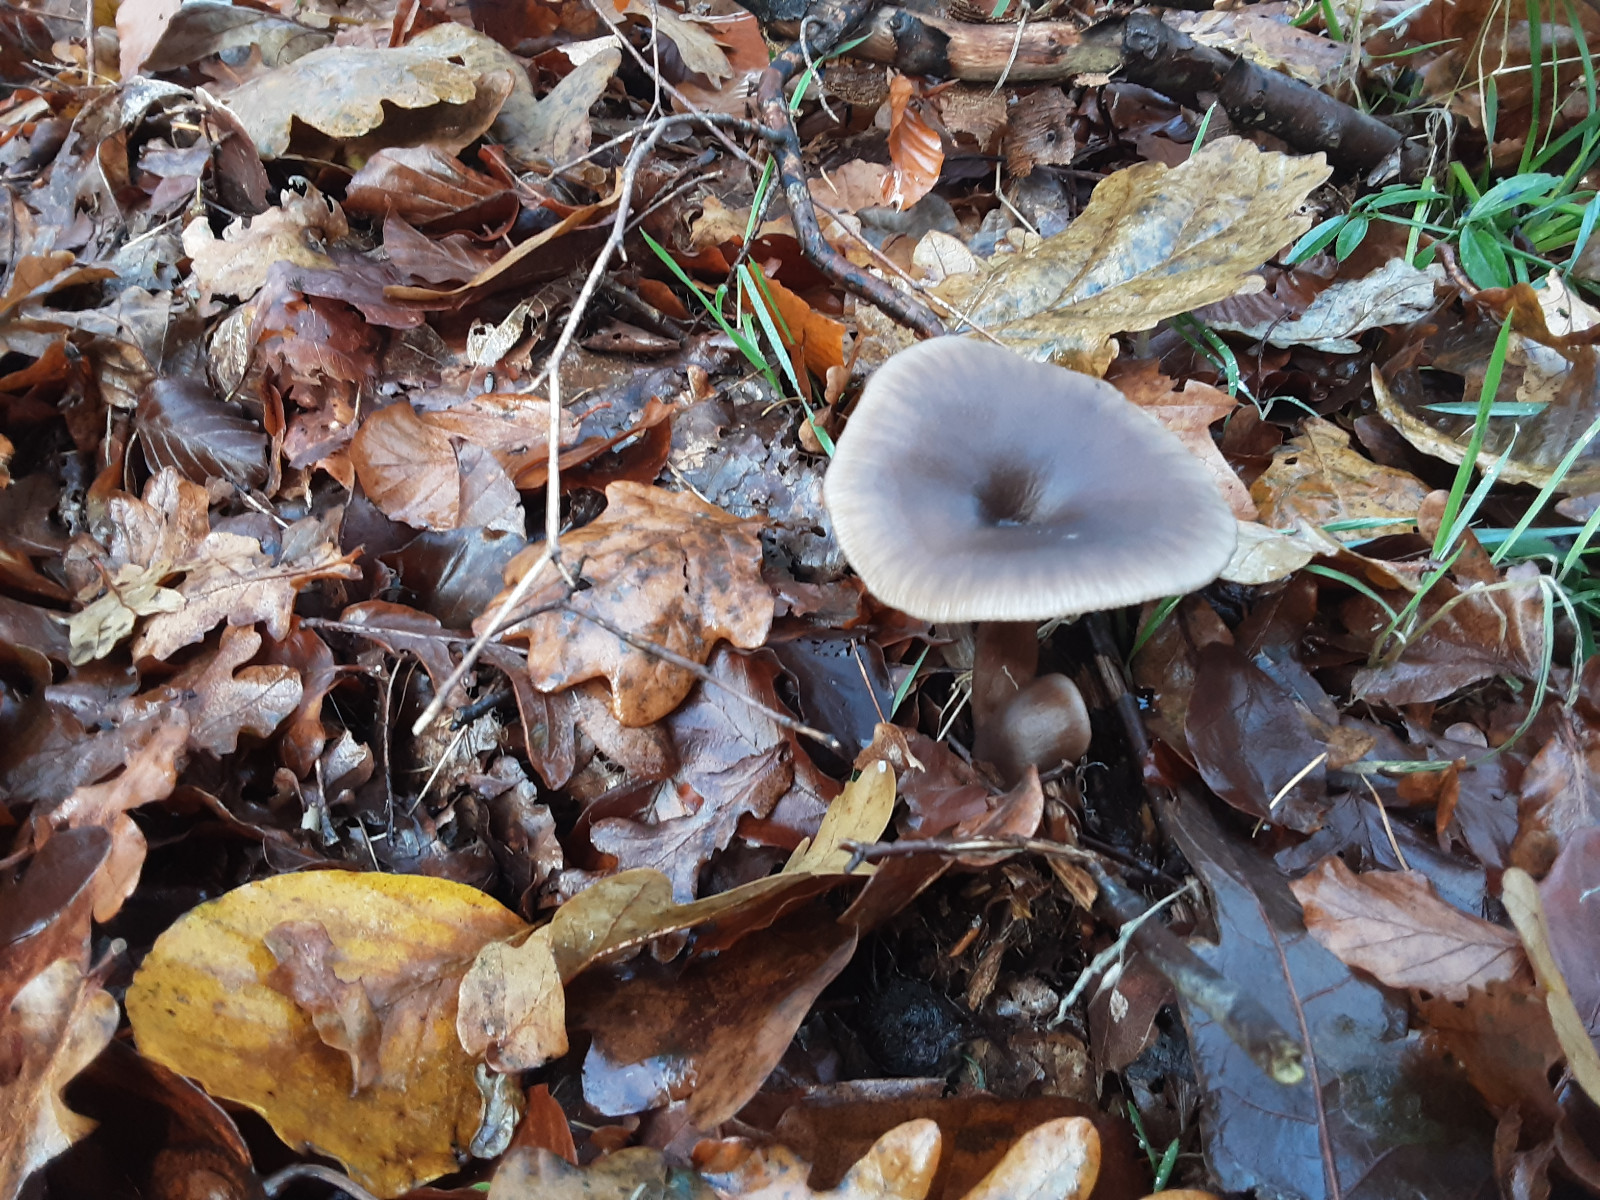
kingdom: Fungi
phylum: Basidiomycota
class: Agaricomycetes
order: Agaricales
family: Pseudoclitocybaceae
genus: Pseudoclitocybe
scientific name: Pseudoclitocybe cyathiformis
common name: almindelig bægertragthat
